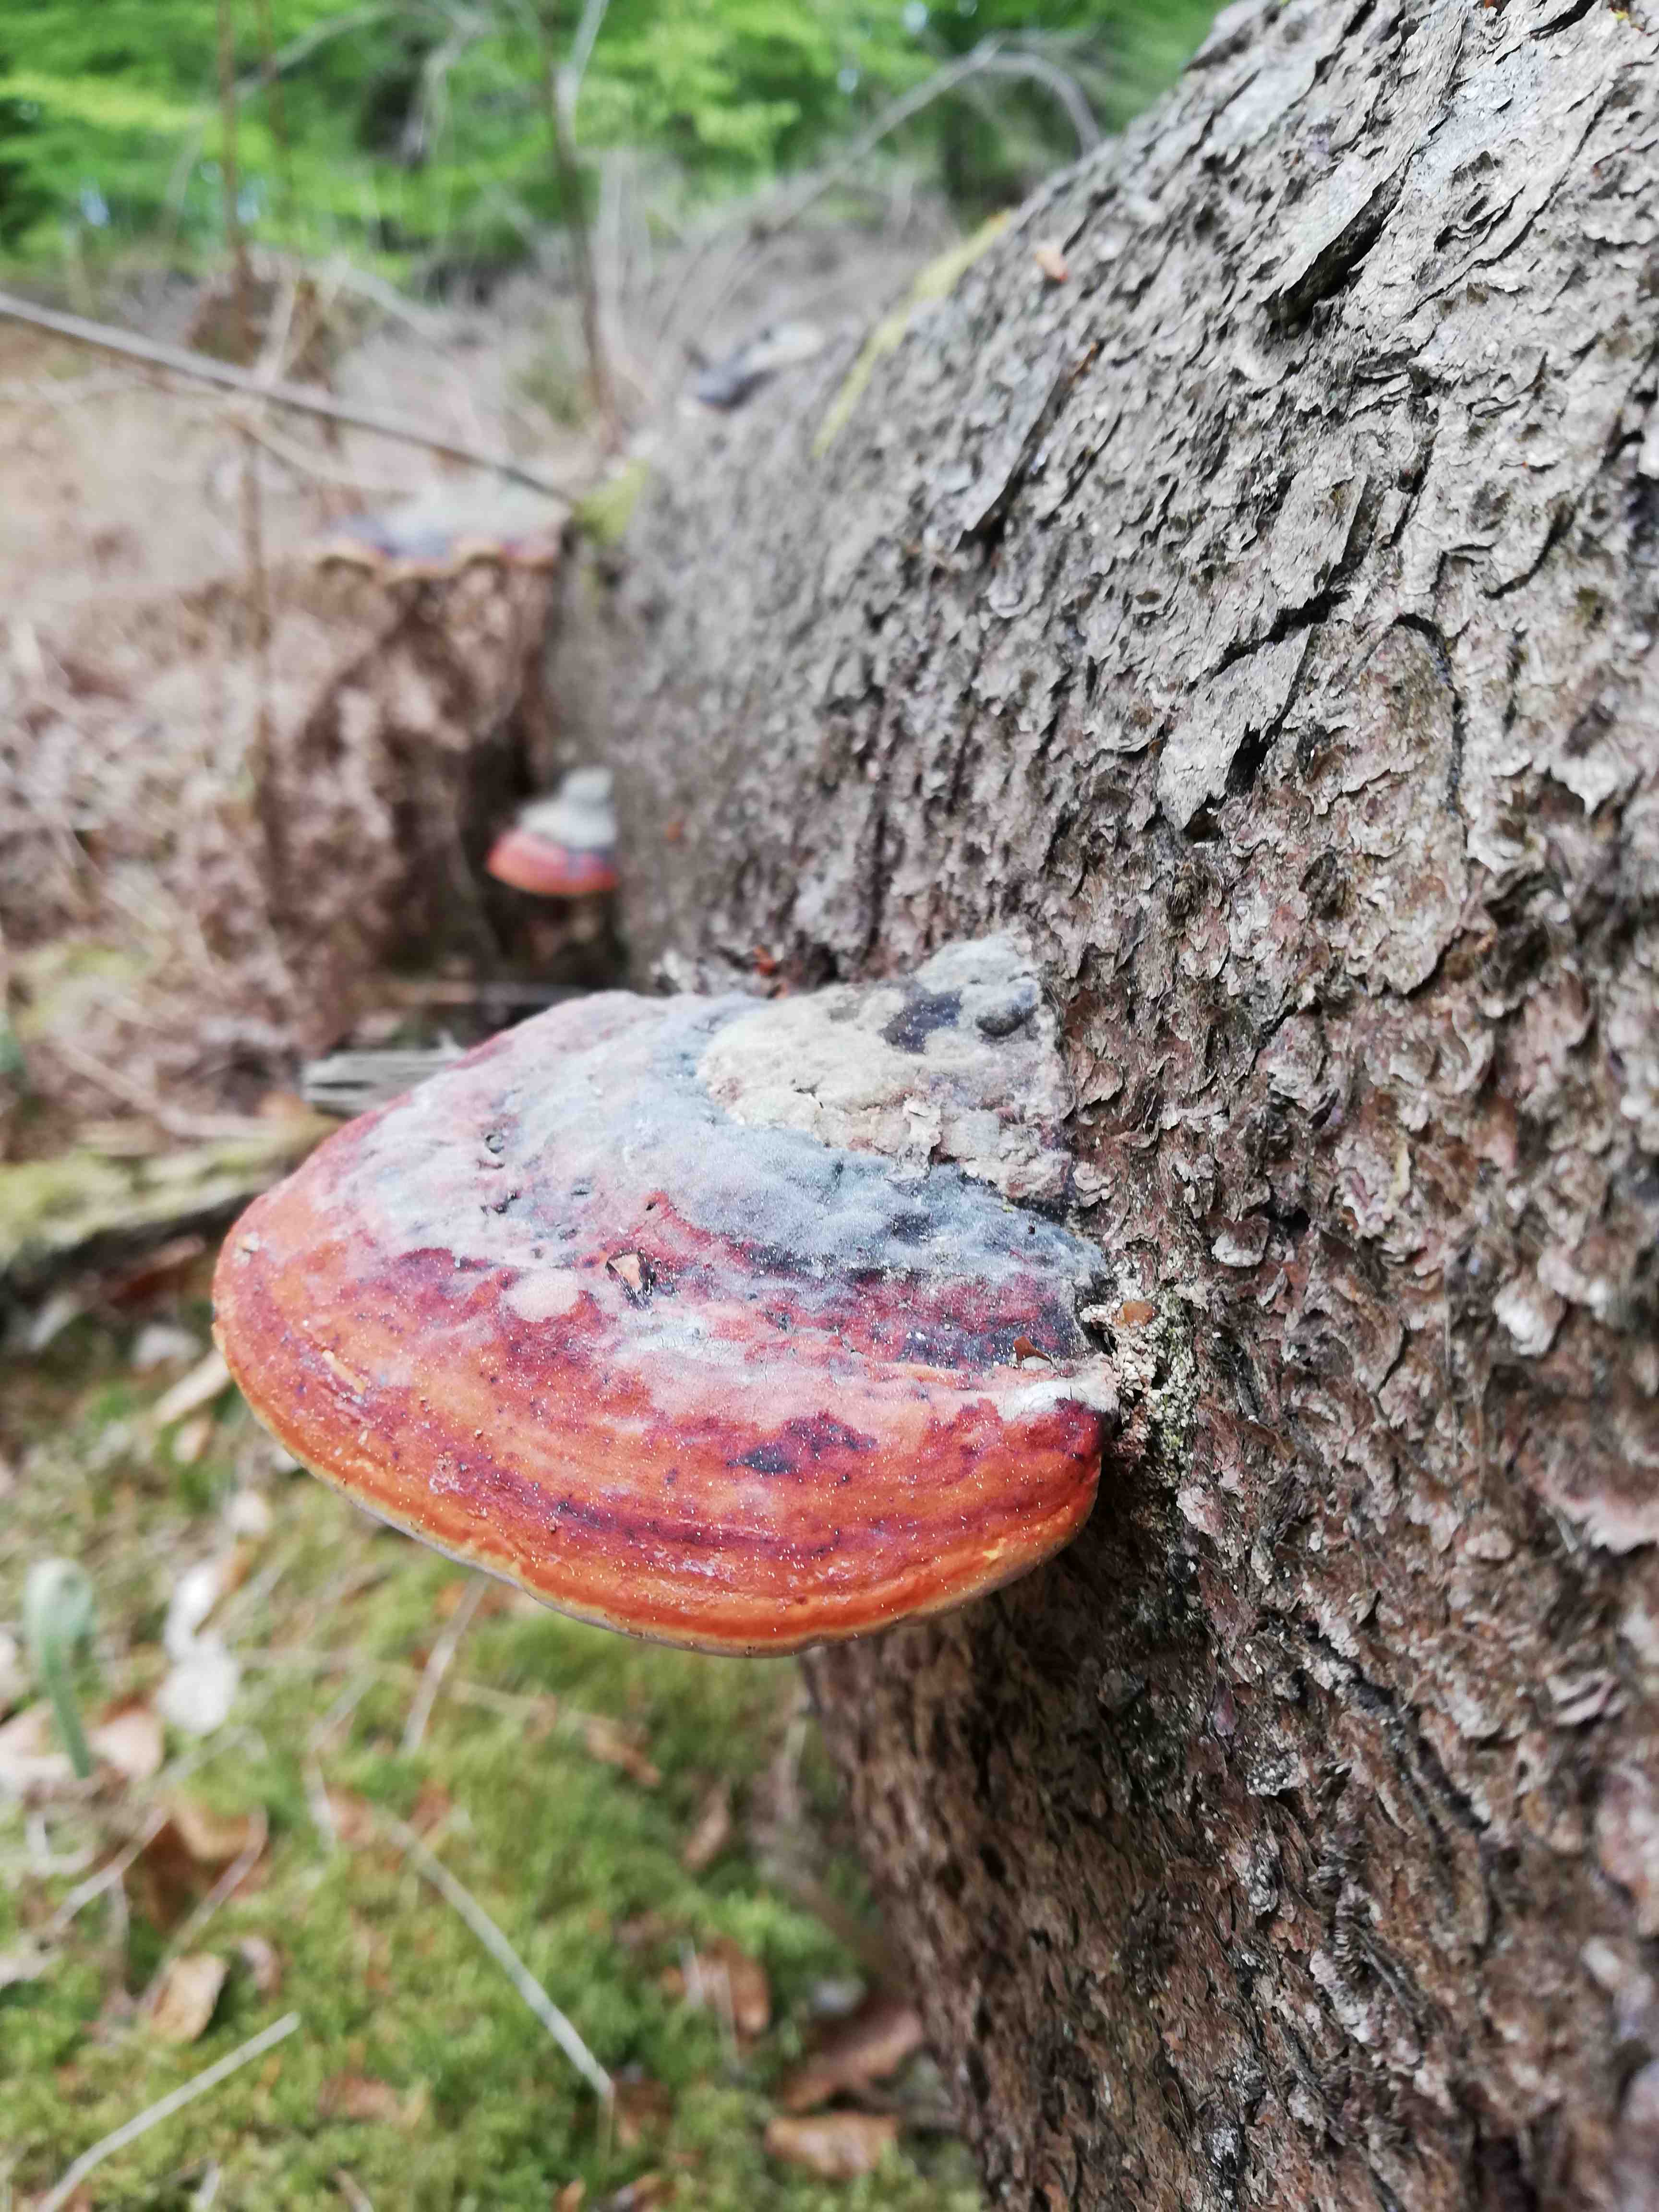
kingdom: Fungi
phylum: Basidiomycota
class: Agaricomycetes
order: Polyporales
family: Fomitopsidaceae
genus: Fomitopsis
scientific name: Fomitopsis pinicola
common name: randbæltet hovporesvamp
